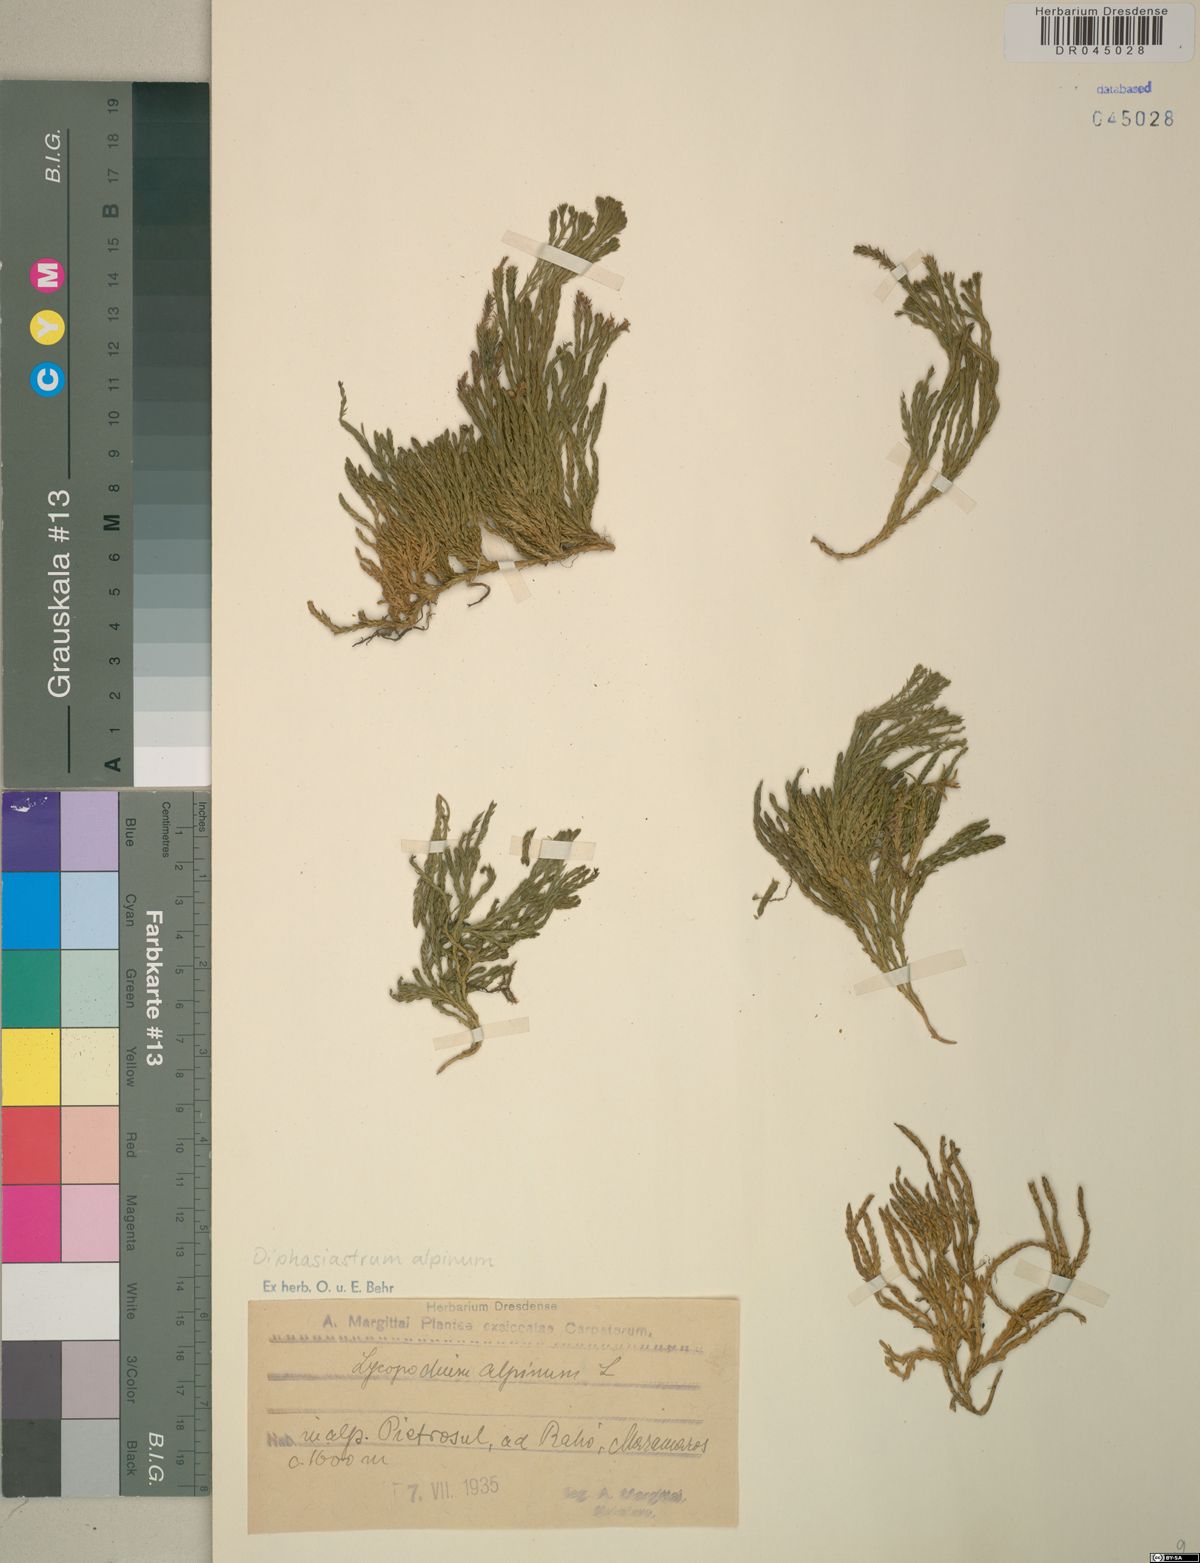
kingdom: Plantae
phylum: Tracheophyta
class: Lycopodiopsida
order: Lycopodiales
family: Lycopodiaceae
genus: Diphasiastrum
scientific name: Diphasiastrum alpinum
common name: Alpine clubmoss
